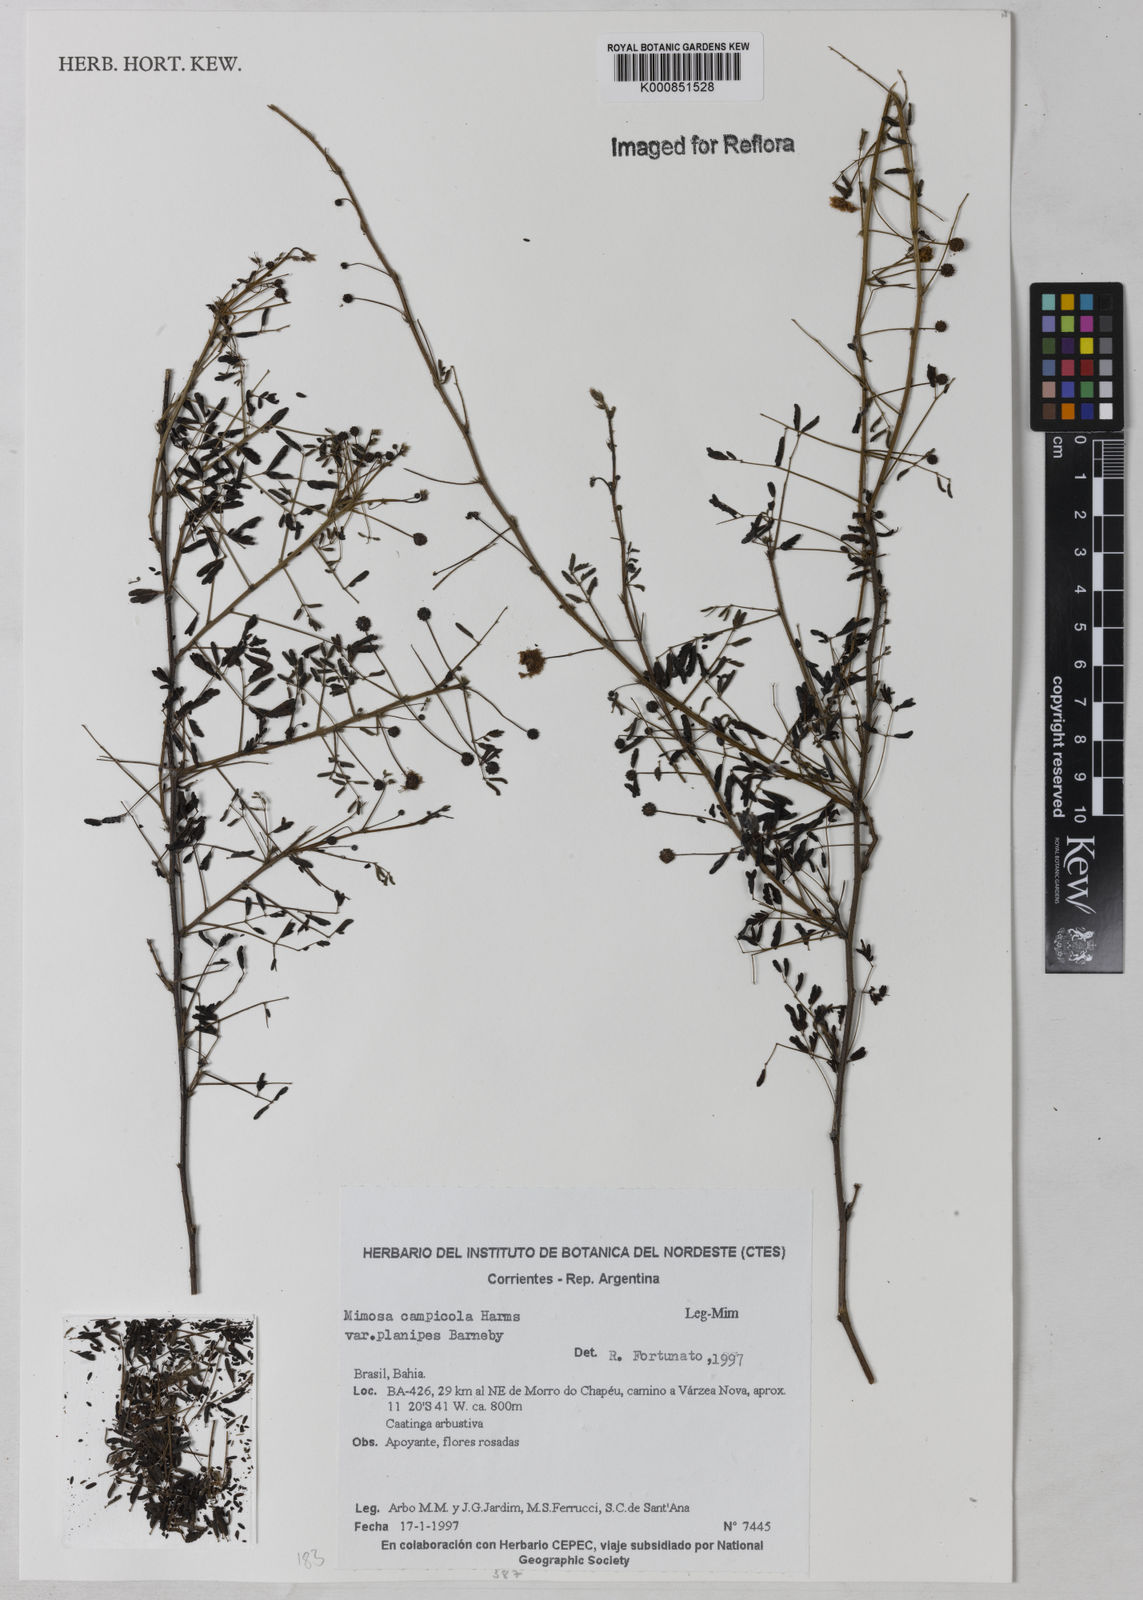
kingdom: Plantae
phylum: Tracheophyta
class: Magnoliopsida
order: Fabales
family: Fabaceae
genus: Mimosa
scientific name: Mimosa campicola
